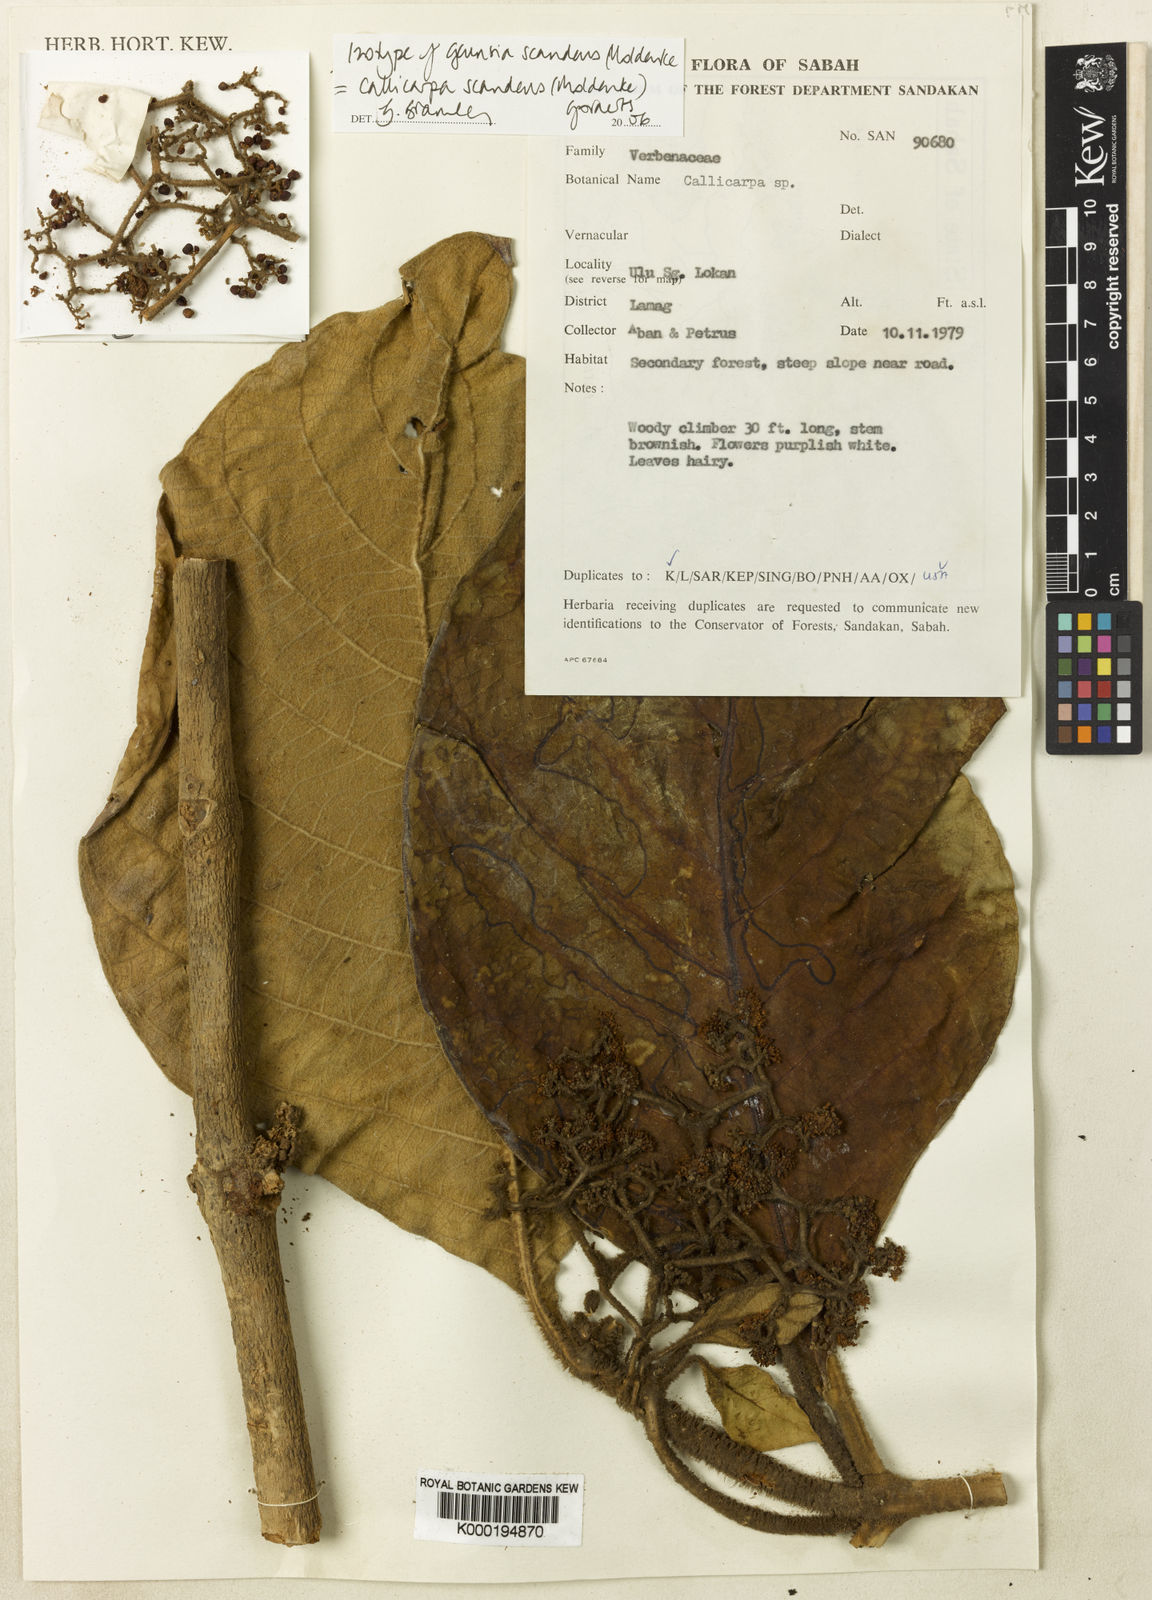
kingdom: Plantae
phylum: Tracheophyta
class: Magnoliopsida
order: Lamiales
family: Lamiaceae
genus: Callicarpa
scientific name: Callicarpa scandens
